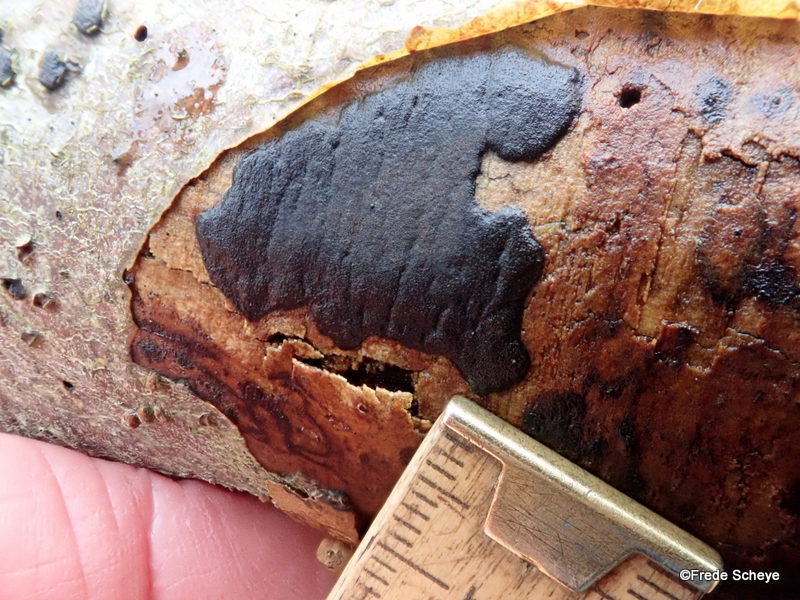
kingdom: Fungi
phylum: Ascomycota
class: Sordariomycetes
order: Xylariales
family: Diatrypaceae
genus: Diatrype
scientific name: Diatrype decorticata
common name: barksprænger-kulskorpe
